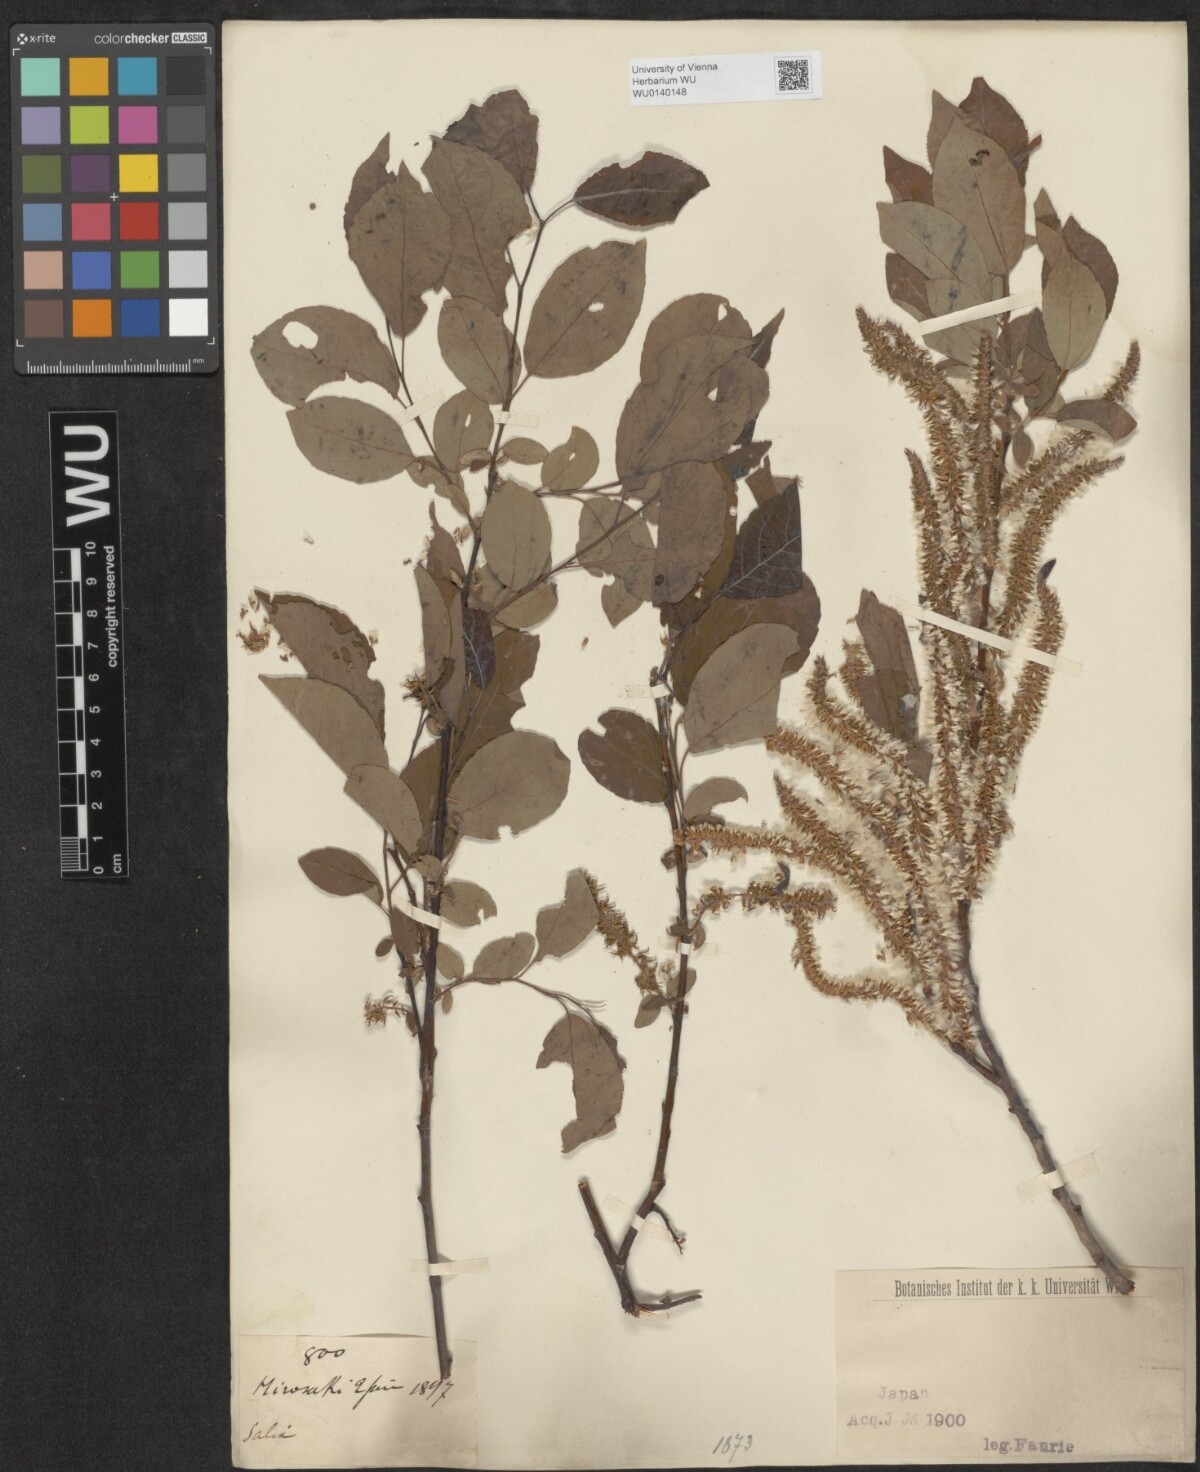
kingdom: Plantae
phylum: Tracheophyta
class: Magnoliopsida
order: Malpighiales
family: Salicaceae
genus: Salix
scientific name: Salix
